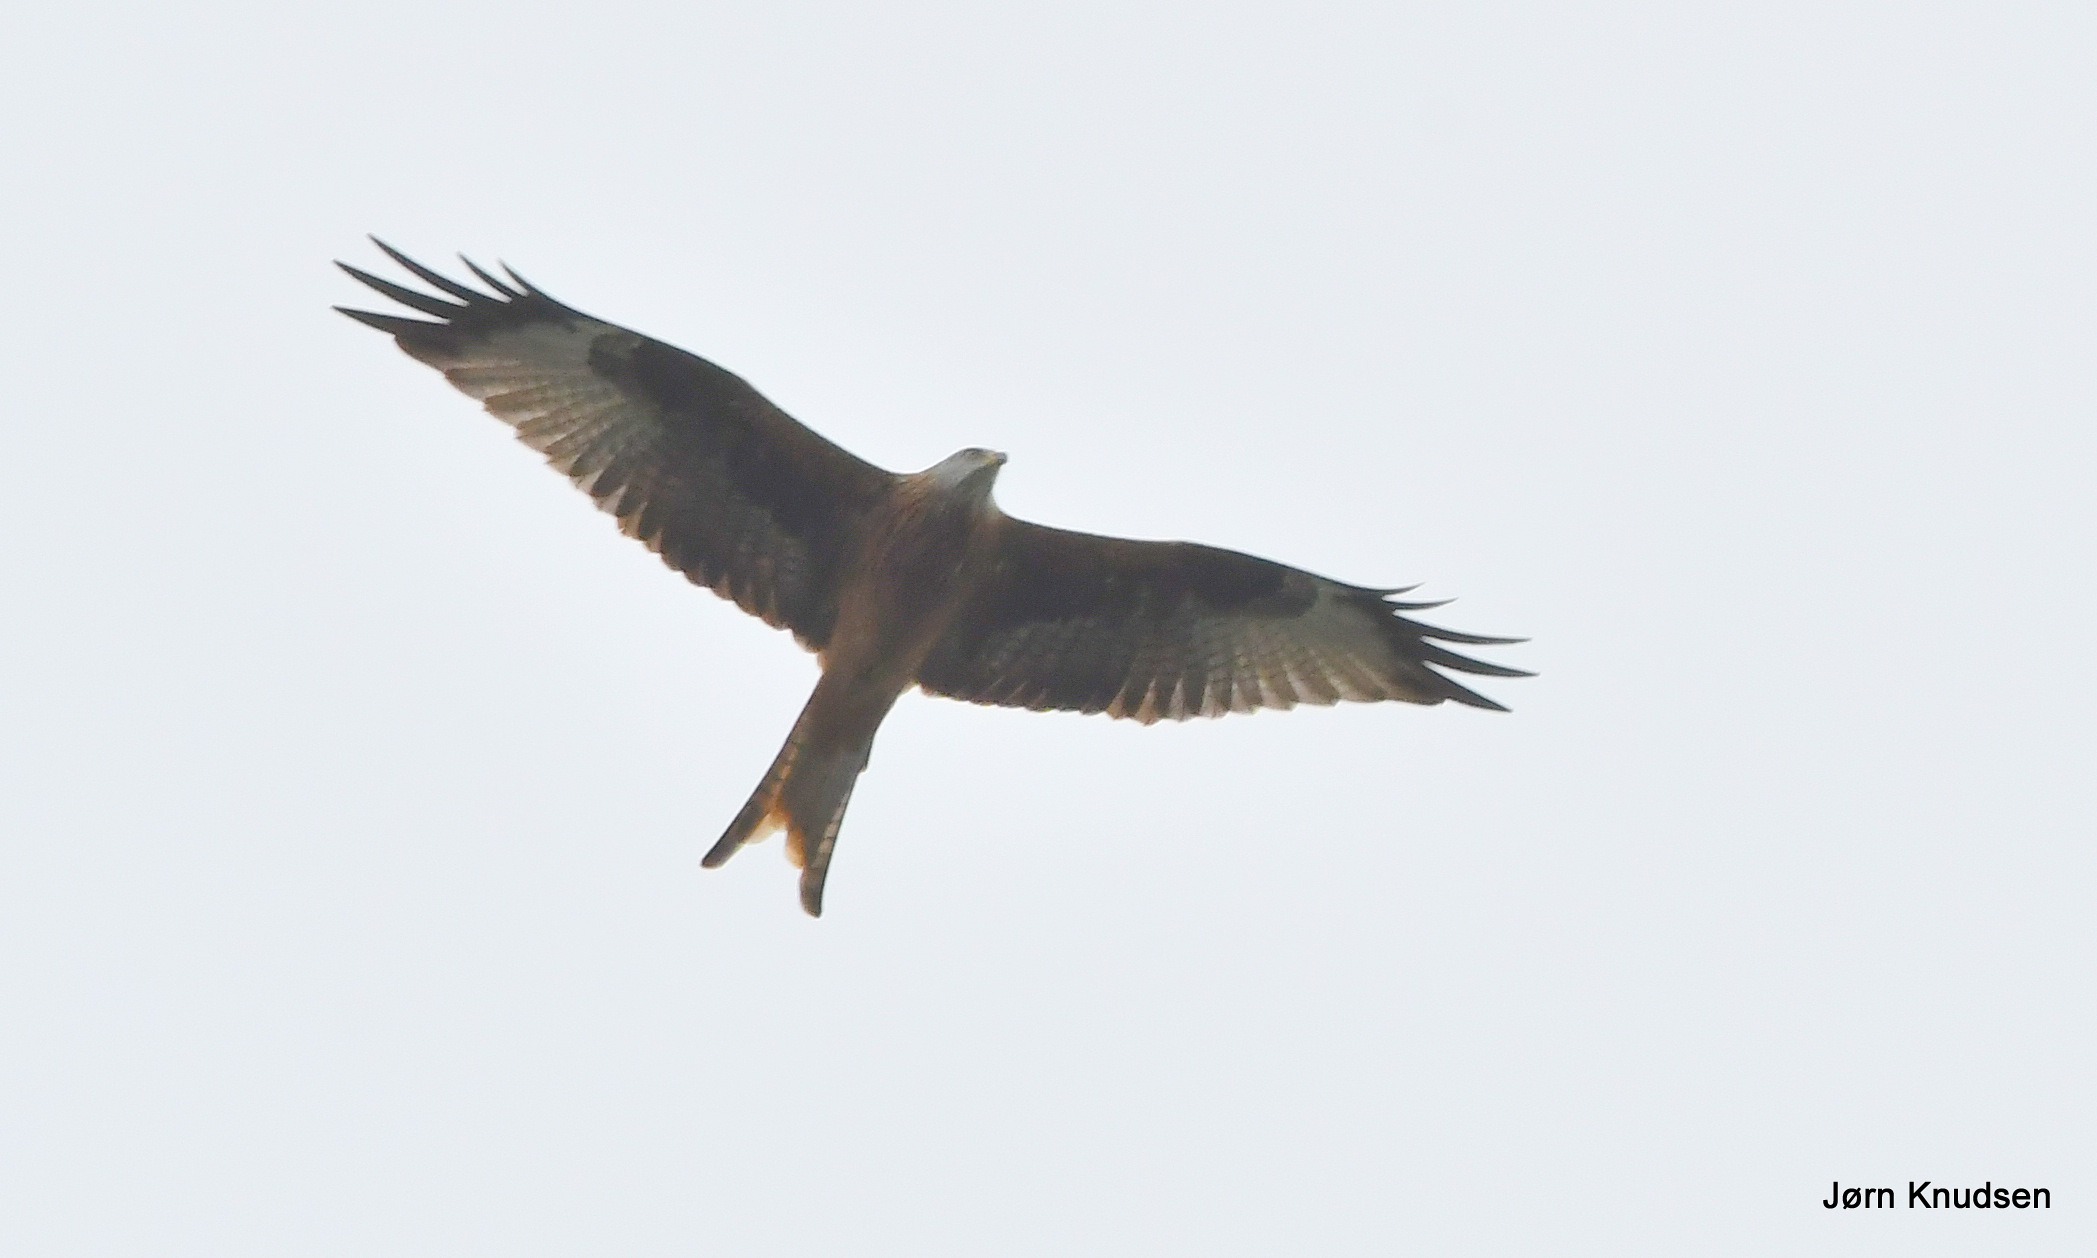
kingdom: Animalia
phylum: Chordata
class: Aves
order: Accipitriformes
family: Accipitridae
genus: Milvus
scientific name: Milvus milvus
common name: Rød glente
